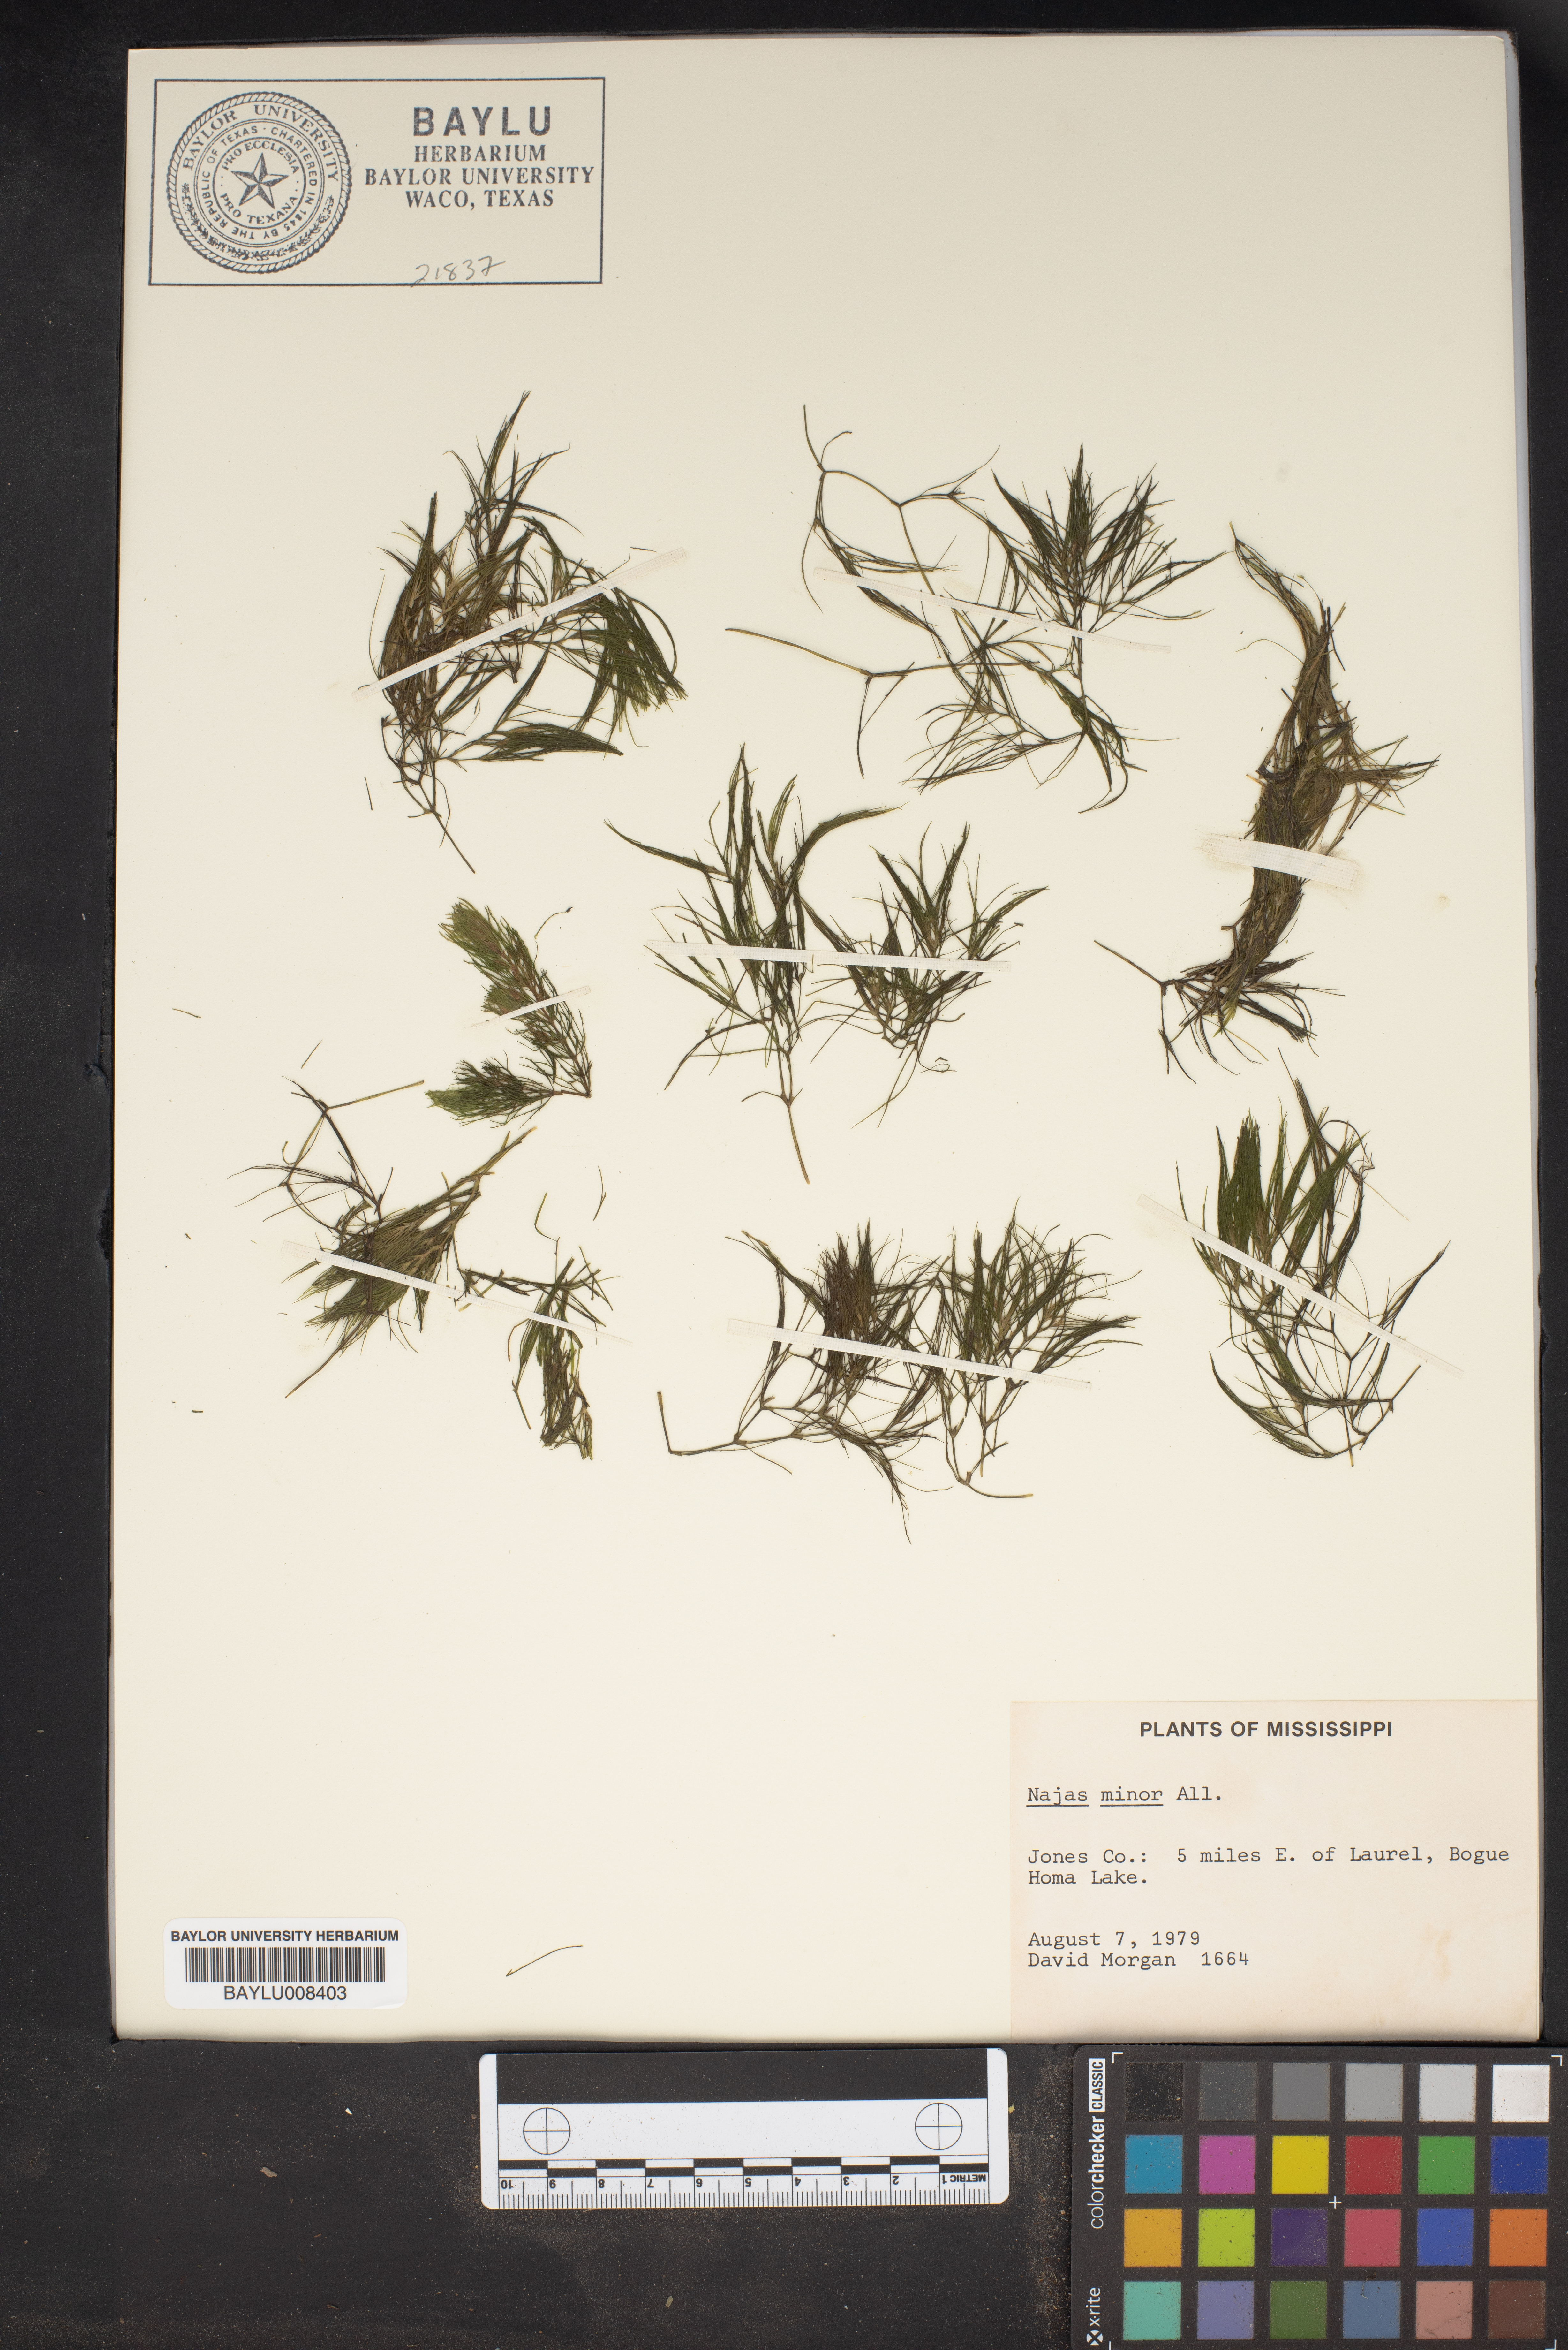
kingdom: Plantae
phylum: Tracheophyta
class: Liliopsida
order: Alismatales
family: Hydrocharitaceae
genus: Najas
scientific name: Najas minor
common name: Brittle naiad
